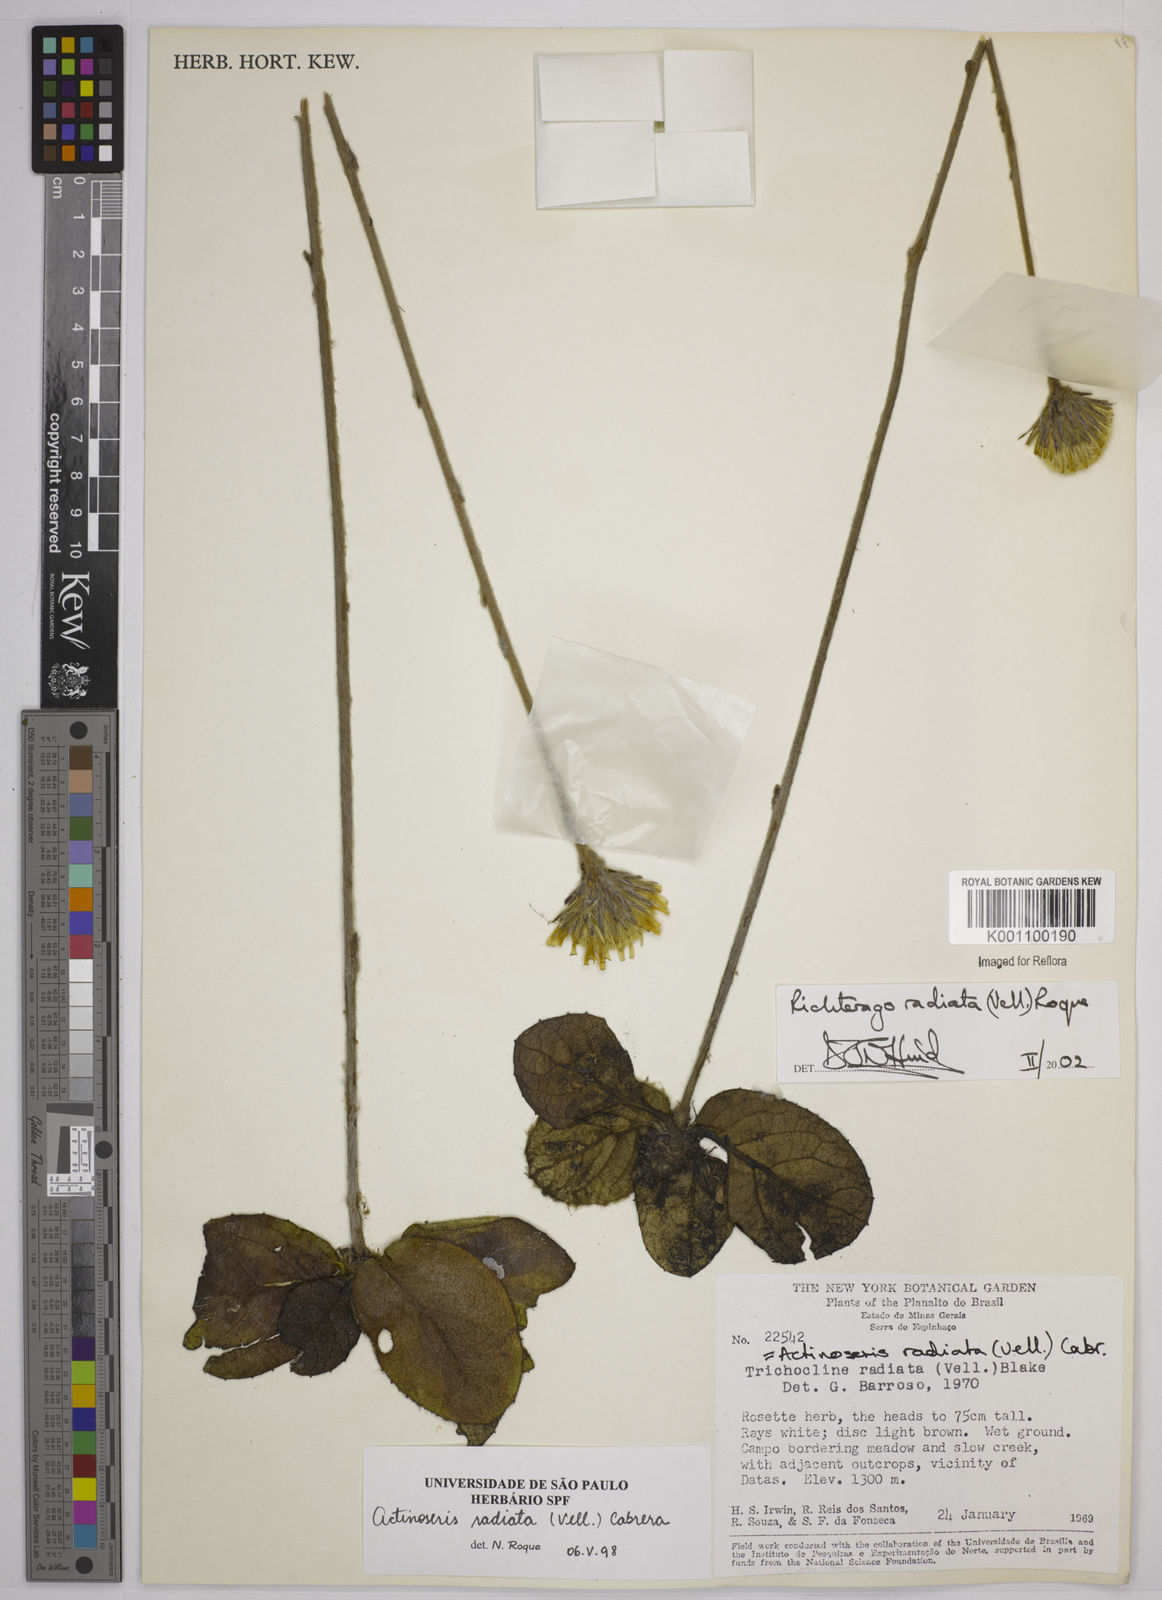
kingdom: Plantae
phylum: Tracheophyta
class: Magnoliopsida
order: Asterales
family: Asteraceae
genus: Richterago
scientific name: Richterago radiata
